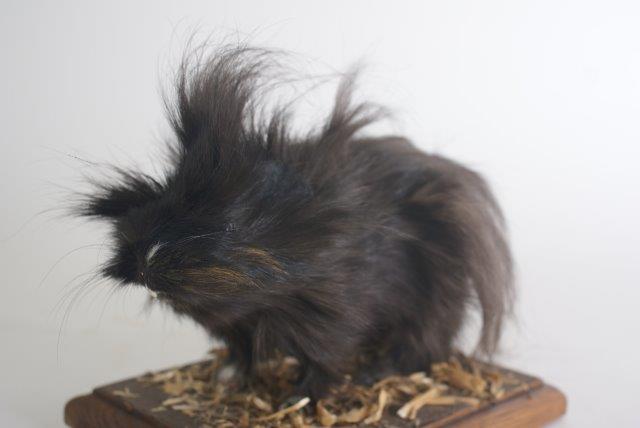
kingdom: Animalia
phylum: Chordata
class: Mammalia
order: Rodentia
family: Caviidae
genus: Cavia
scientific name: Cavia aperea
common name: Brazilian Guinea Pig
